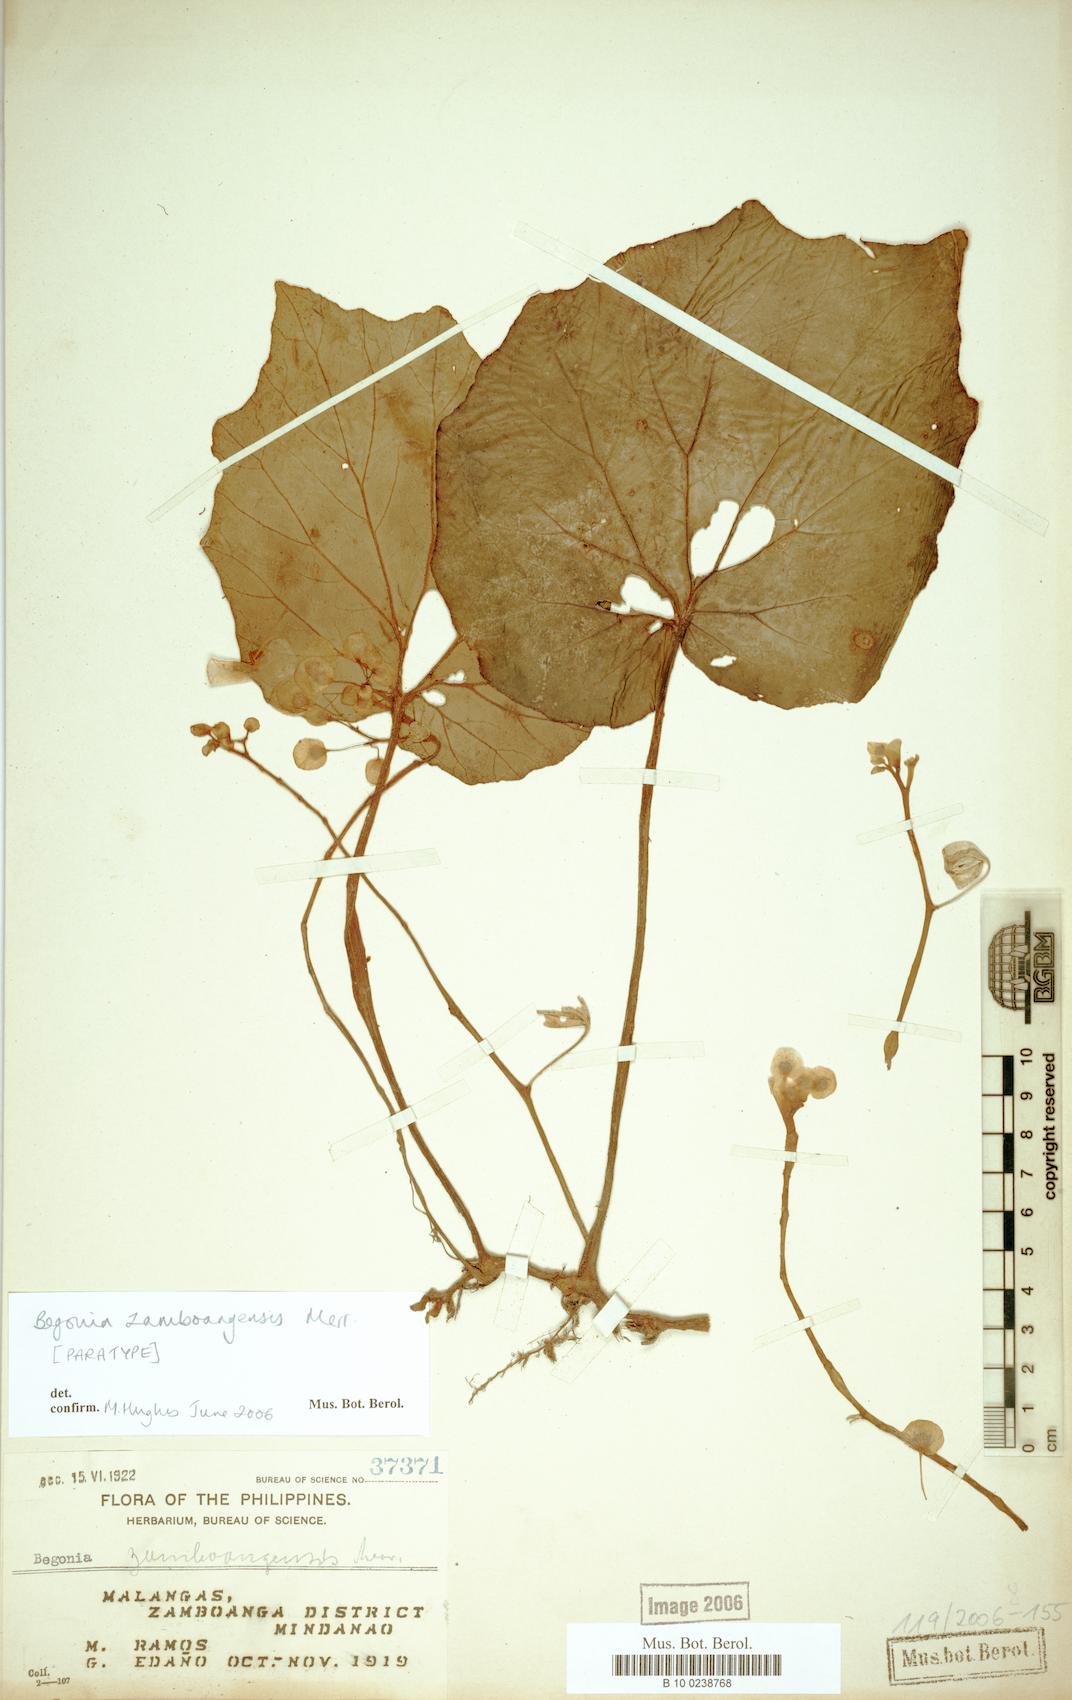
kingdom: Plantae
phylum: Tracheophyta
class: Magnoliopsida
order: Cucurbitales
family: Begoniaceae
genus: Begonia
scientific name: Begonia zamboangensis
